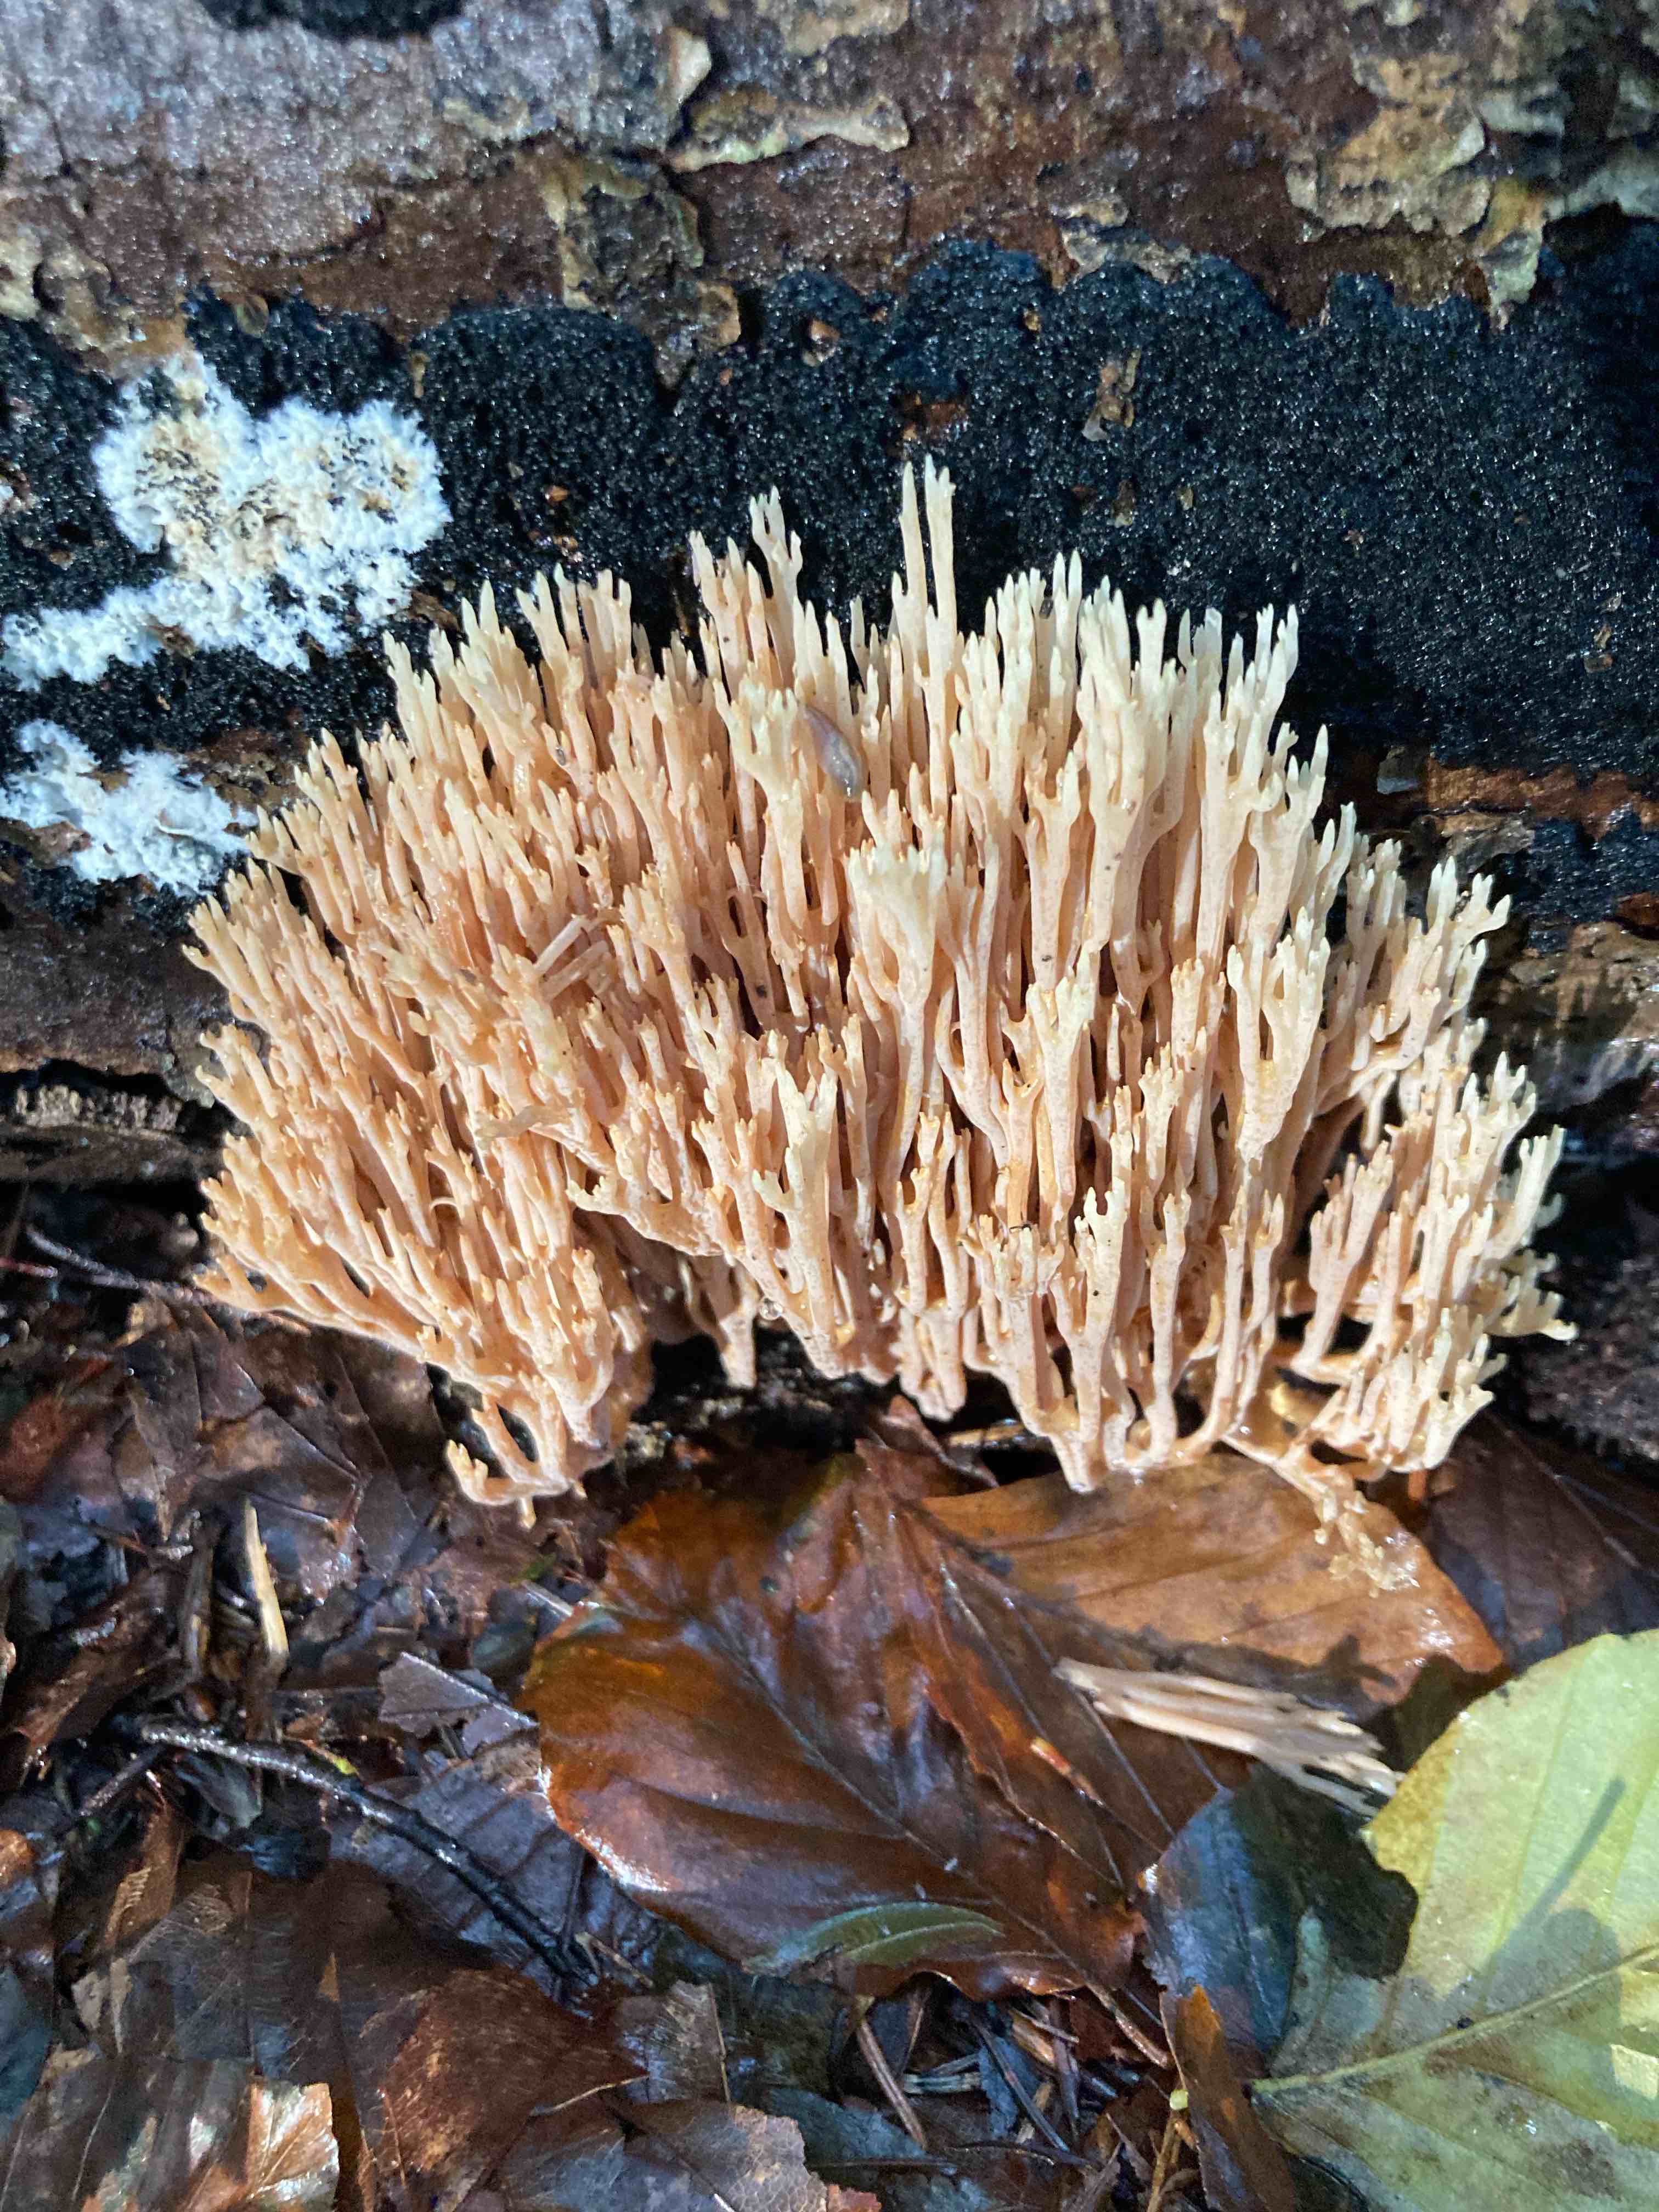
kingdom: Fungi
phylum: Basidiomycota
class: Agaricomycetes
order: Gomphales
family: Gomphaceae
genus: Ramaria
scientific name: Ramaria stricta
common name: rank koralsvamp
